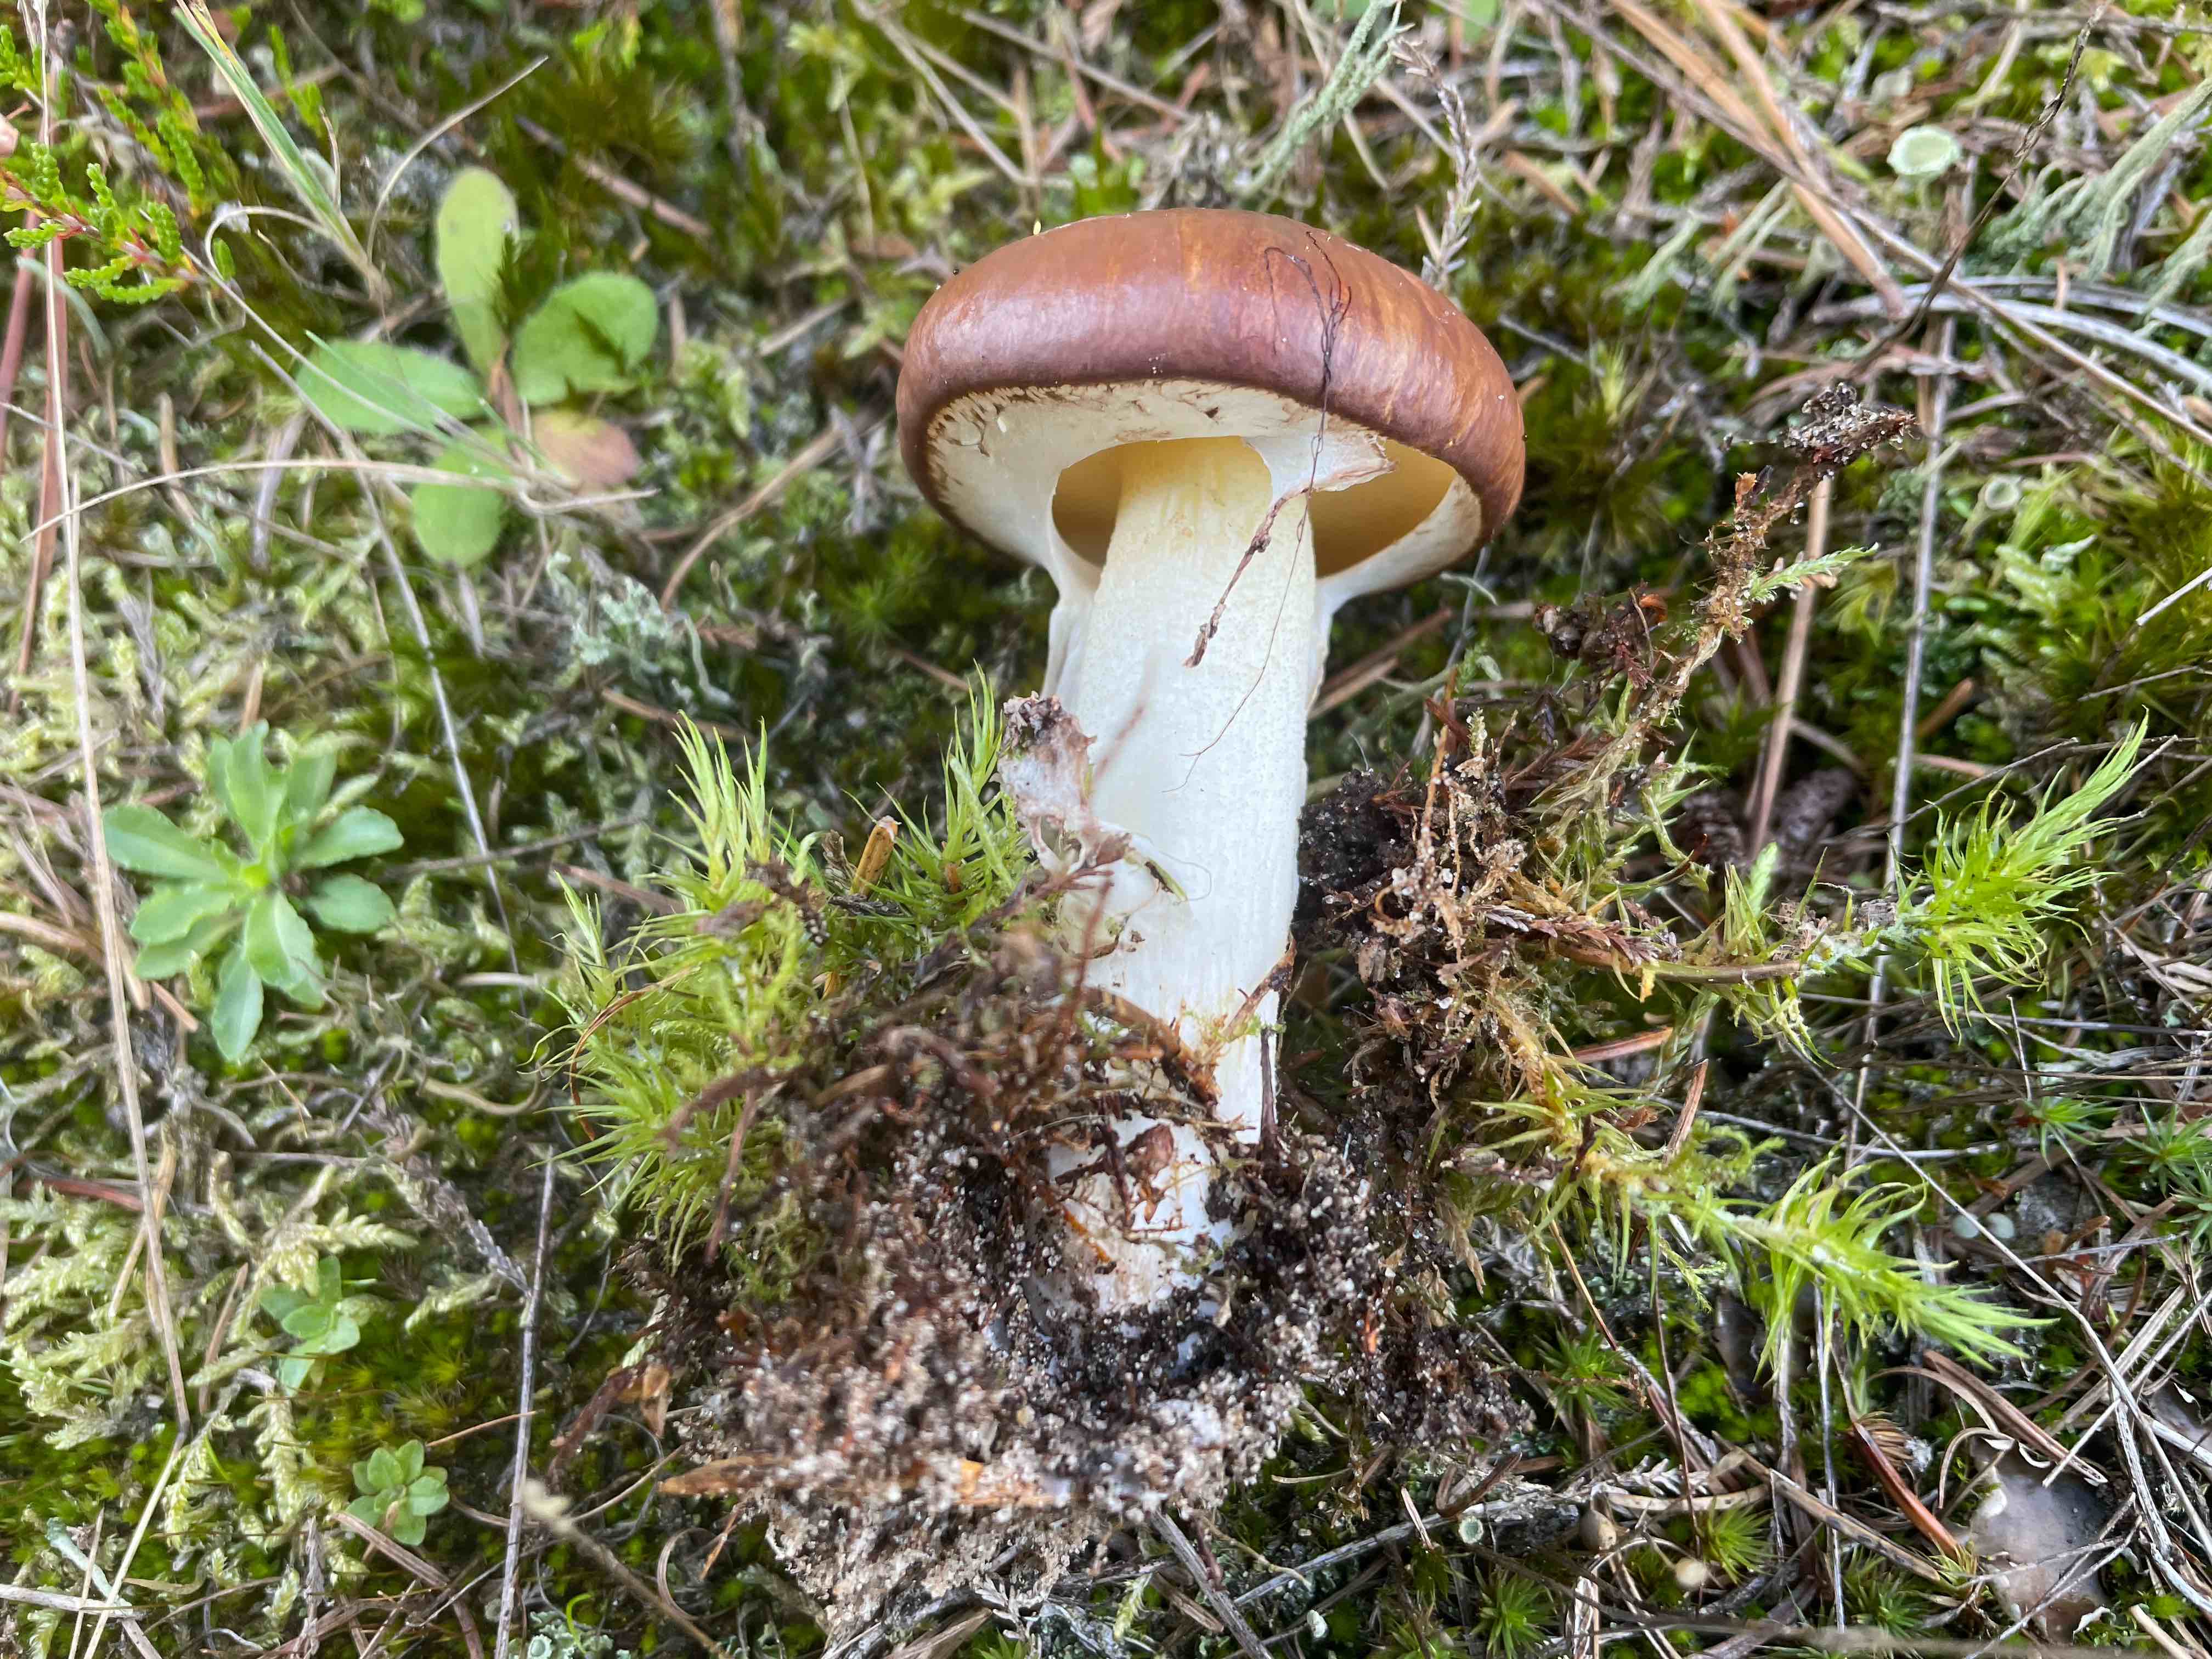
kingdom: Fungi
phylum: Basidiomycota
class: Agaricomycetes
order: Boletales
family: Suillaceae
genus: Suillus
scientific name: Suillus luteus
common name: brungul slimrørhat
